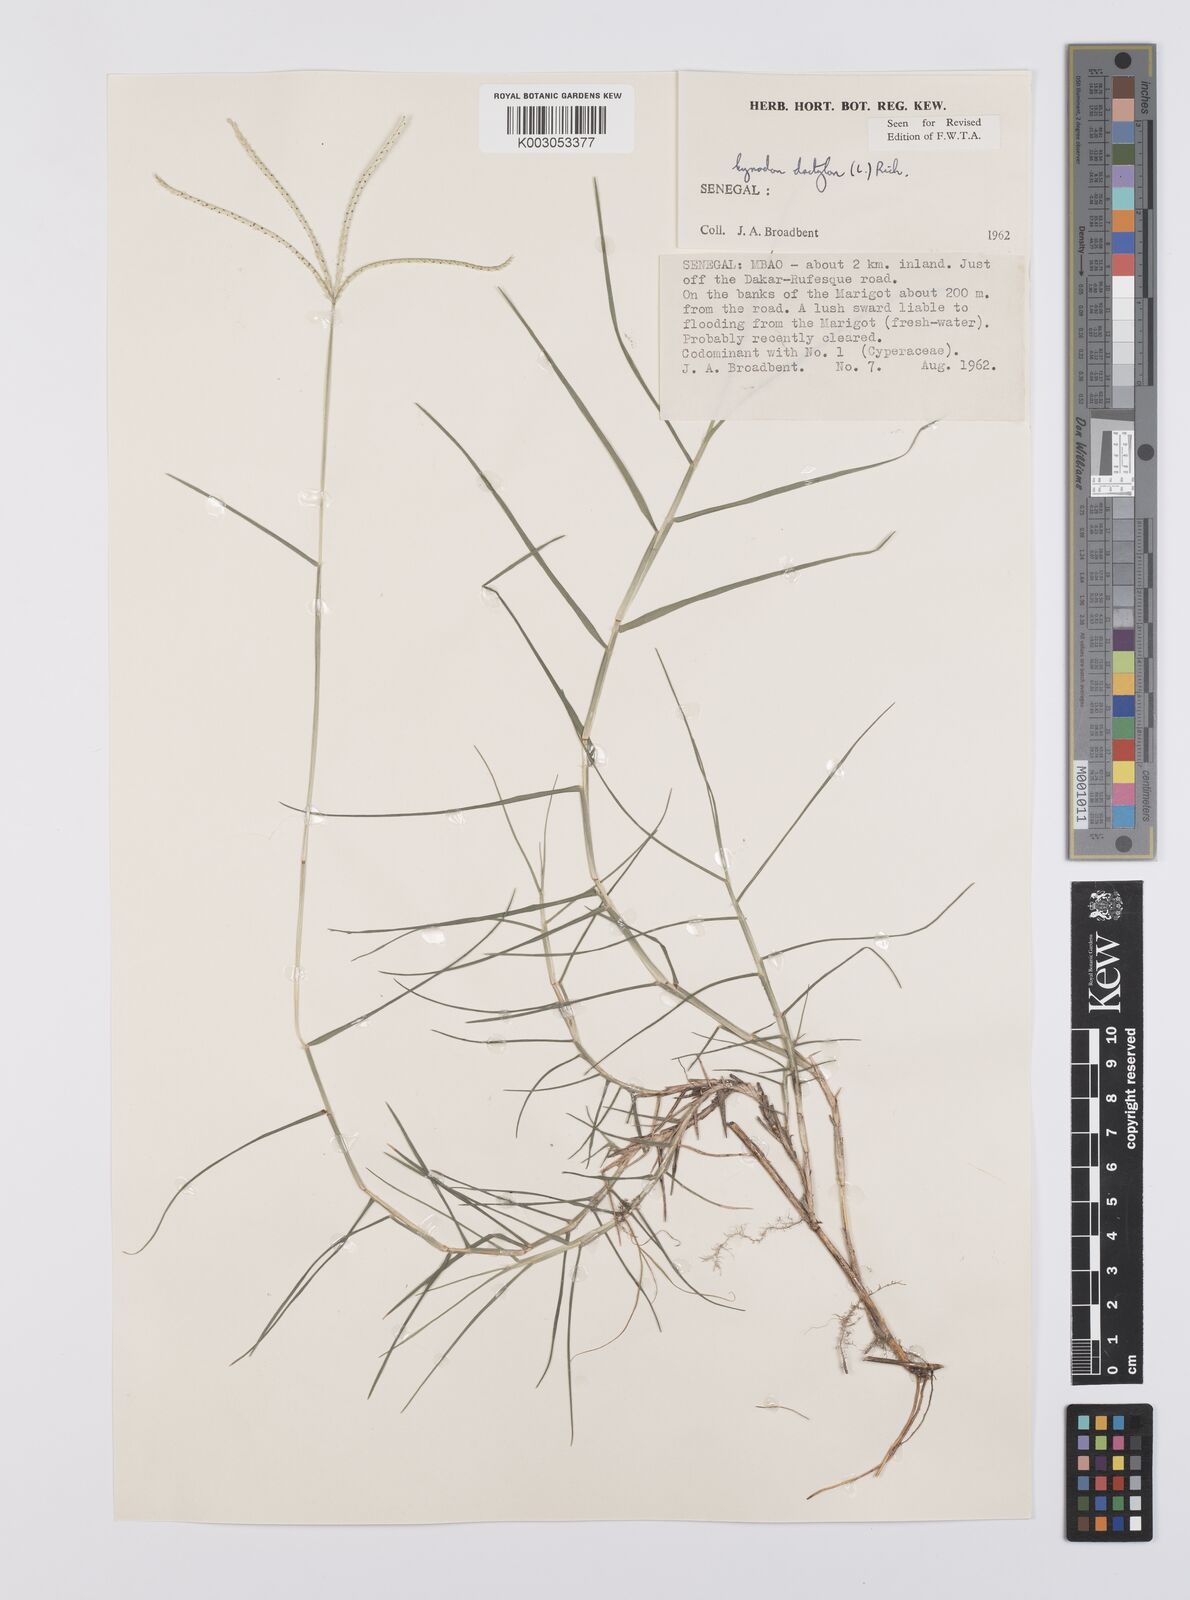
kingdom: Plantae
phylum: Tracheophyta
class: Liliopsida
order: Poales
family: Poaceae
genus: Cynodon
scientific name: Cynodon dactylon
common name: Bermuda grass
